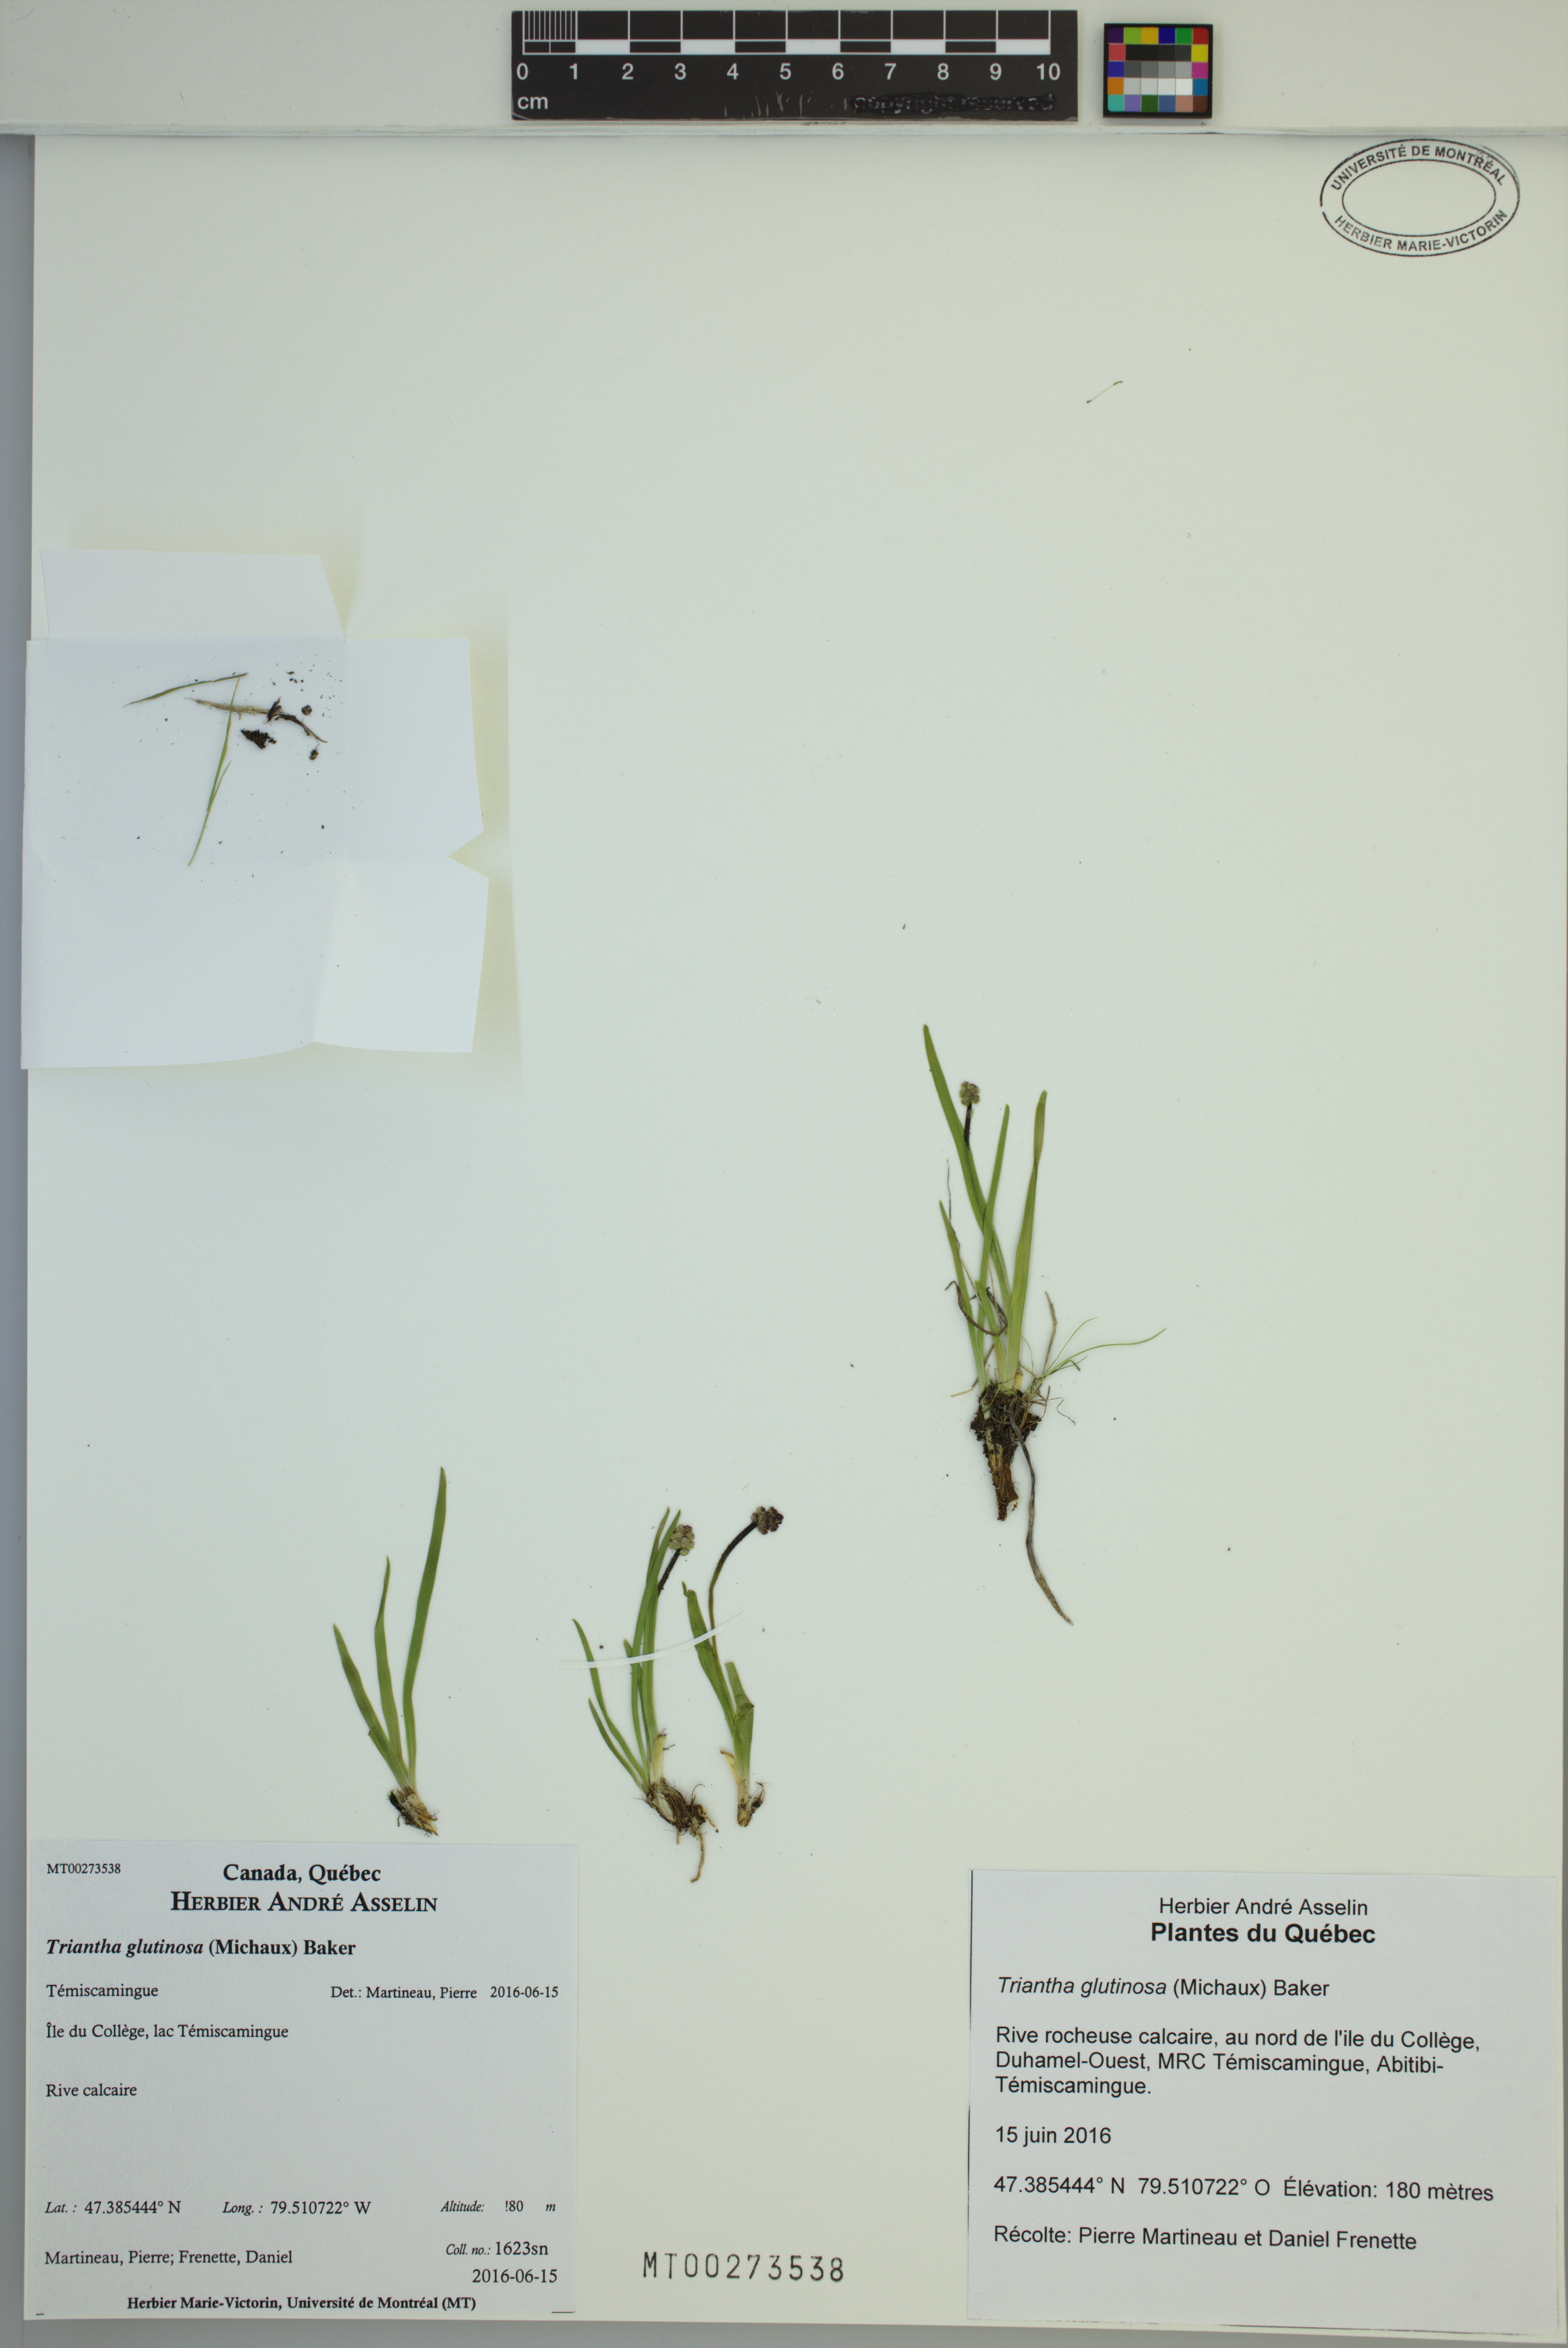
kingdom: Plantae
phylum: Tracheophyta
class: Liliopsida
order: Alismatales
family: Tofieldiaceae
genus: Triantha
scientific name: Triantha glutinosa
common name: Glutinous tofieldia
